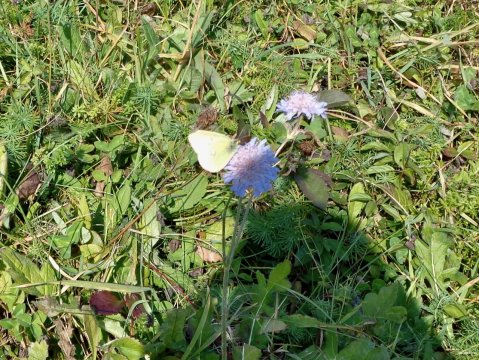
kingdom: Animalia
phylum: Arthropoda
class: Insecta
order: Lepidoptera
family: Pieridae
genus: Colias
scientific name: Colias philodice
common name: Clouded Sulphur
